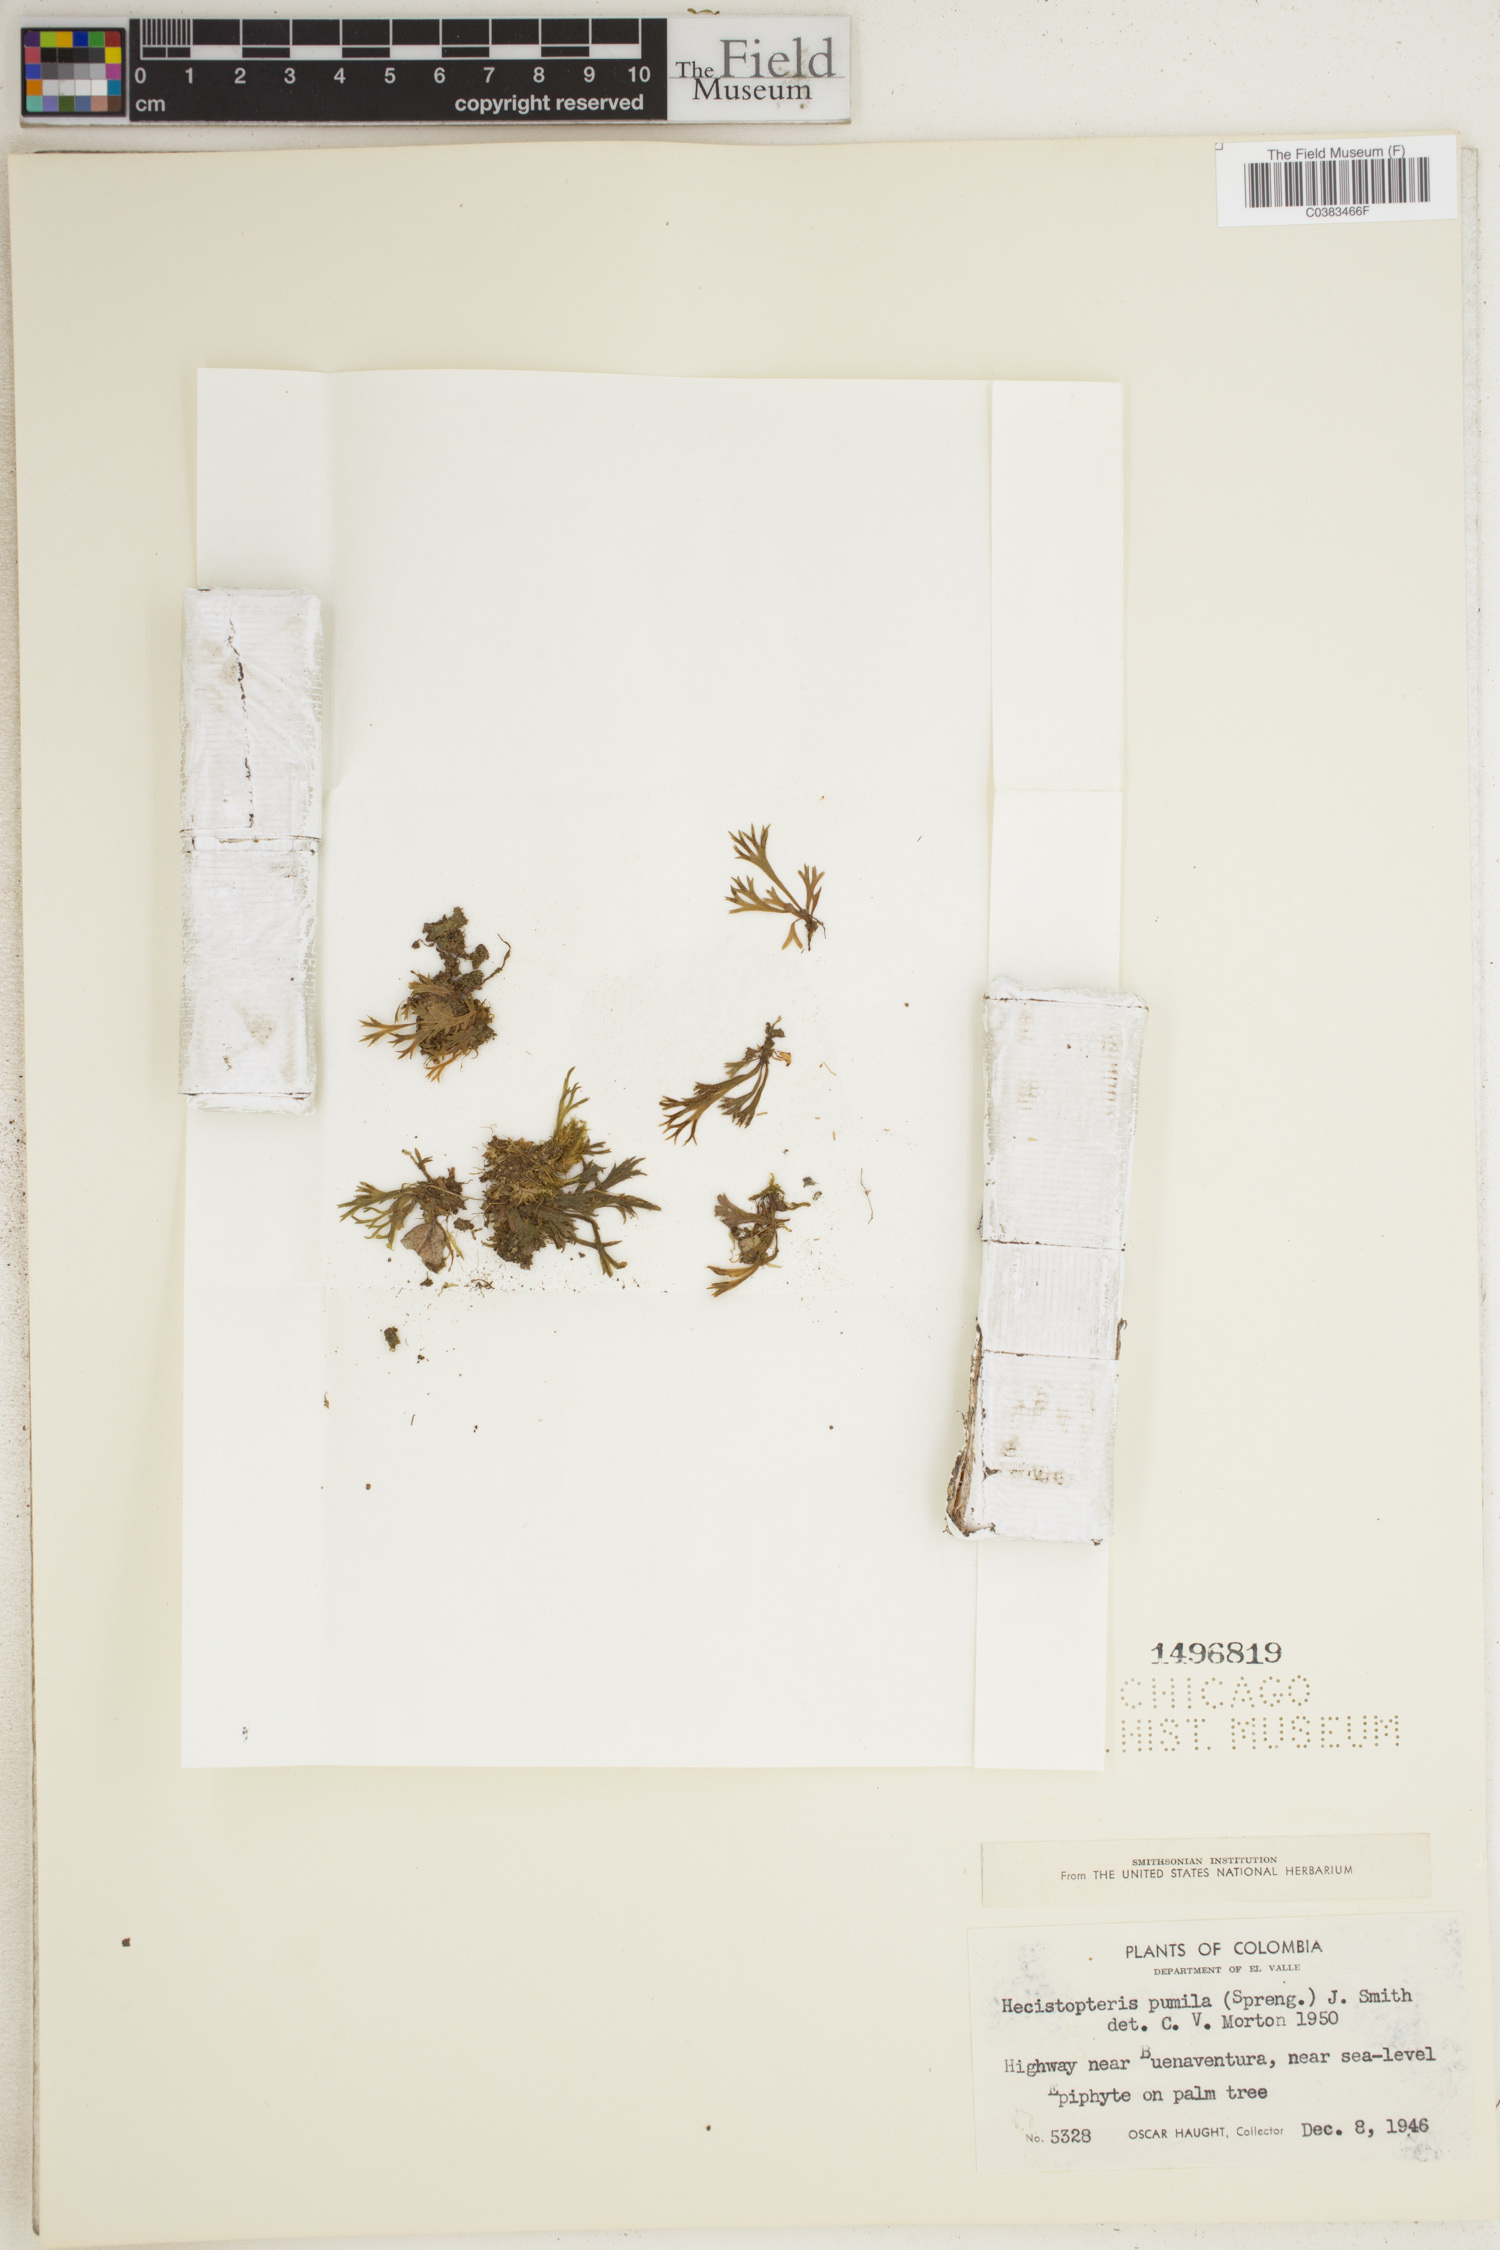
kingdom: Plantae
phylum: Tracheophyta
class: Polypodiopsida
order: Polypodiales
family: Pteridaceae
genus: Hecistopteris
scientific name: Hecistopteris pumila
